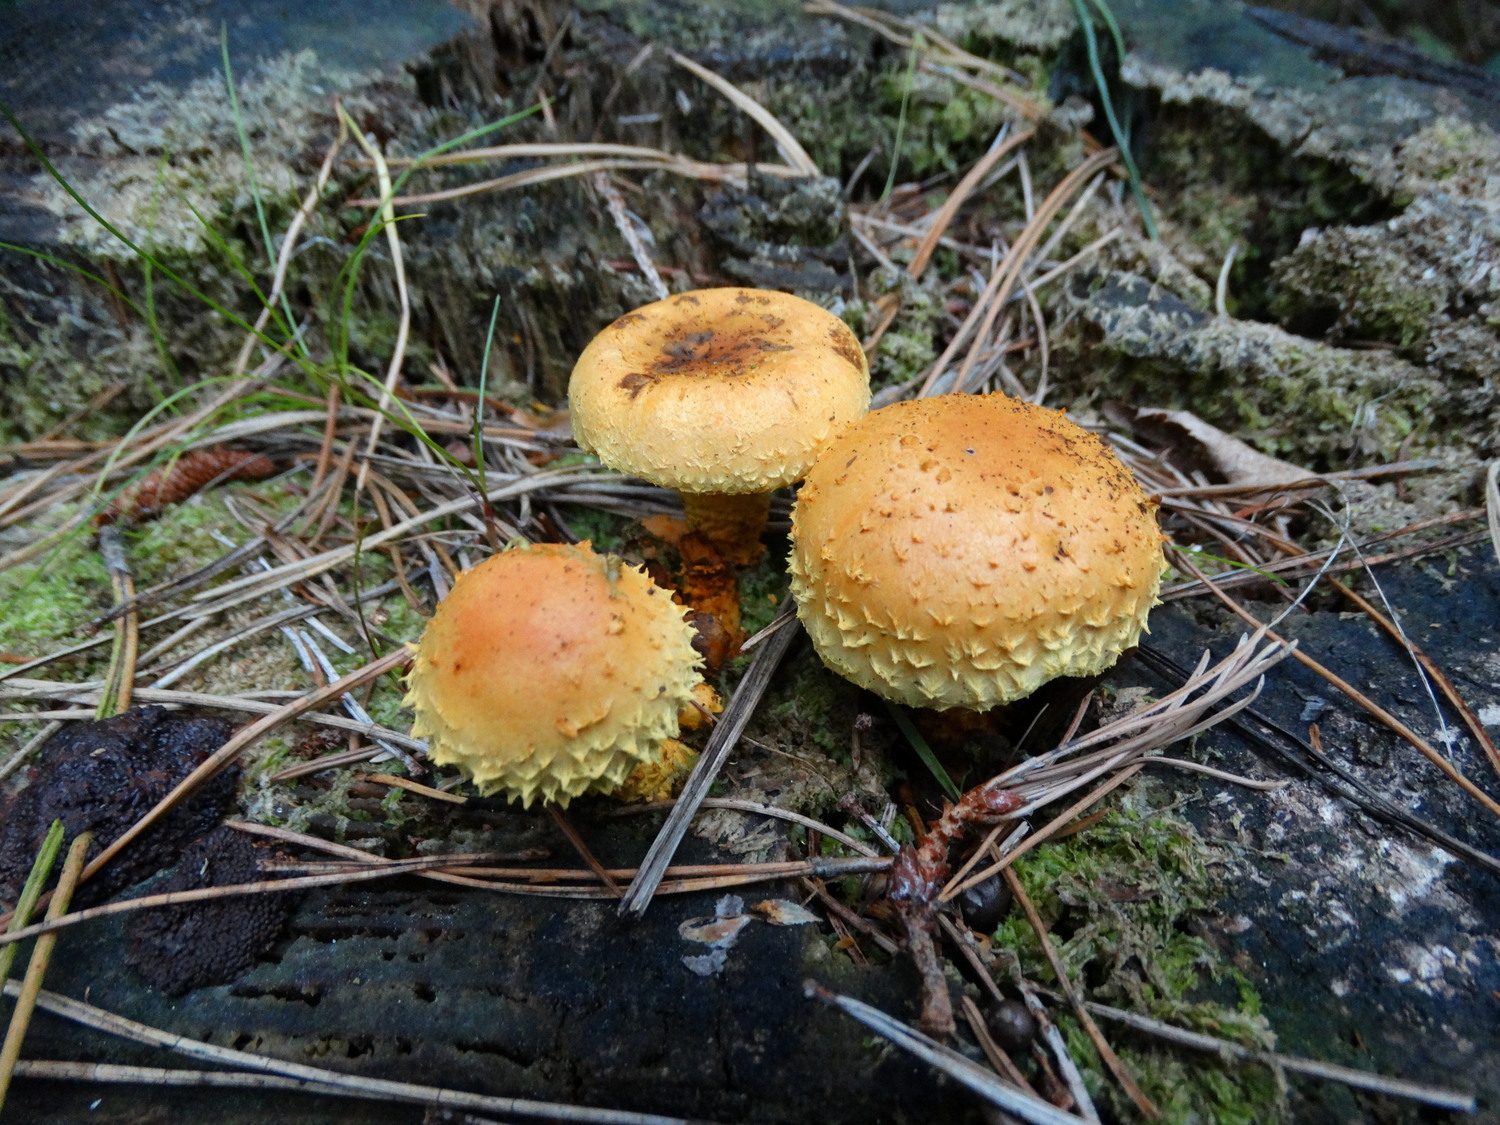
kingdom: Fungi
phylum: Basidiomycota
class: Agaricomycetes
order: Agaricales
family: Strophariaceae
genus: Pholiota
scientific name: Pholiota flammans
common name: flamme-skælhat
